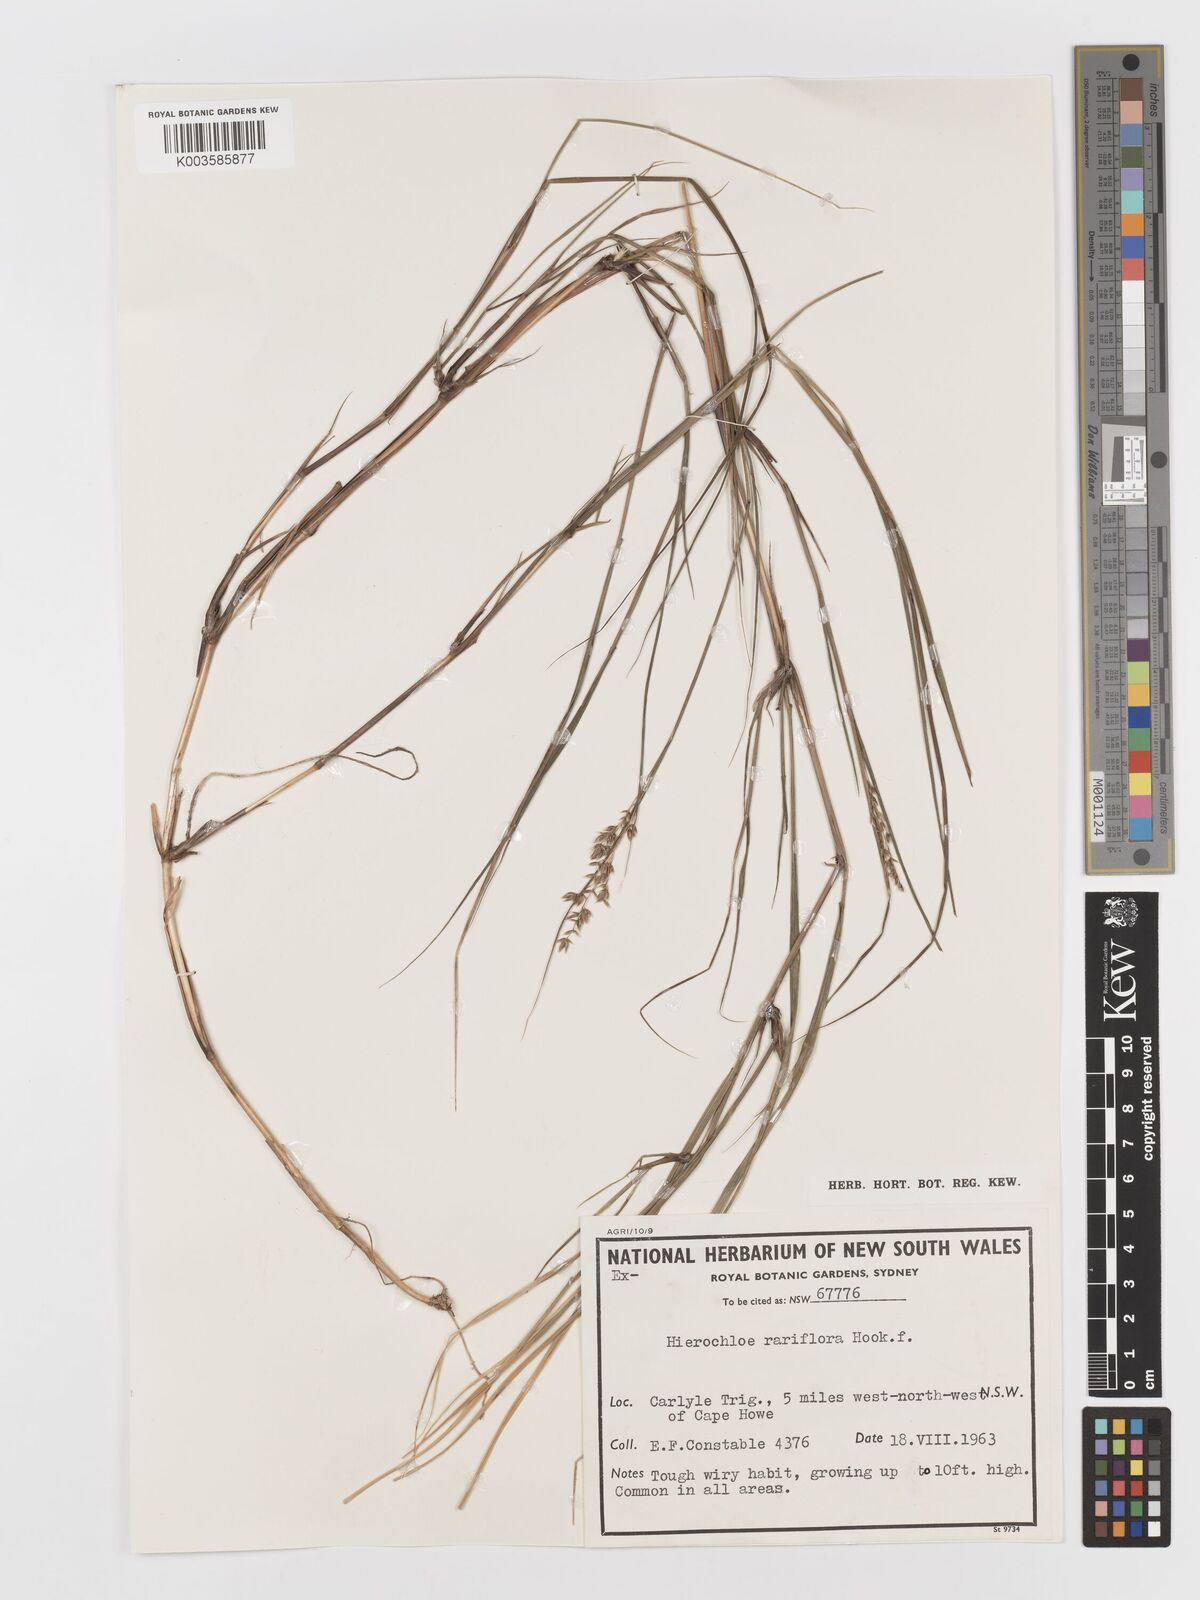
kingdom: Plantae
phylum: Tracheophyta
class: Liliopsida
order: Poales
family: Poaceae
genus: Anthoxanthum
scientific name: Anthoxanthum rariflorum
